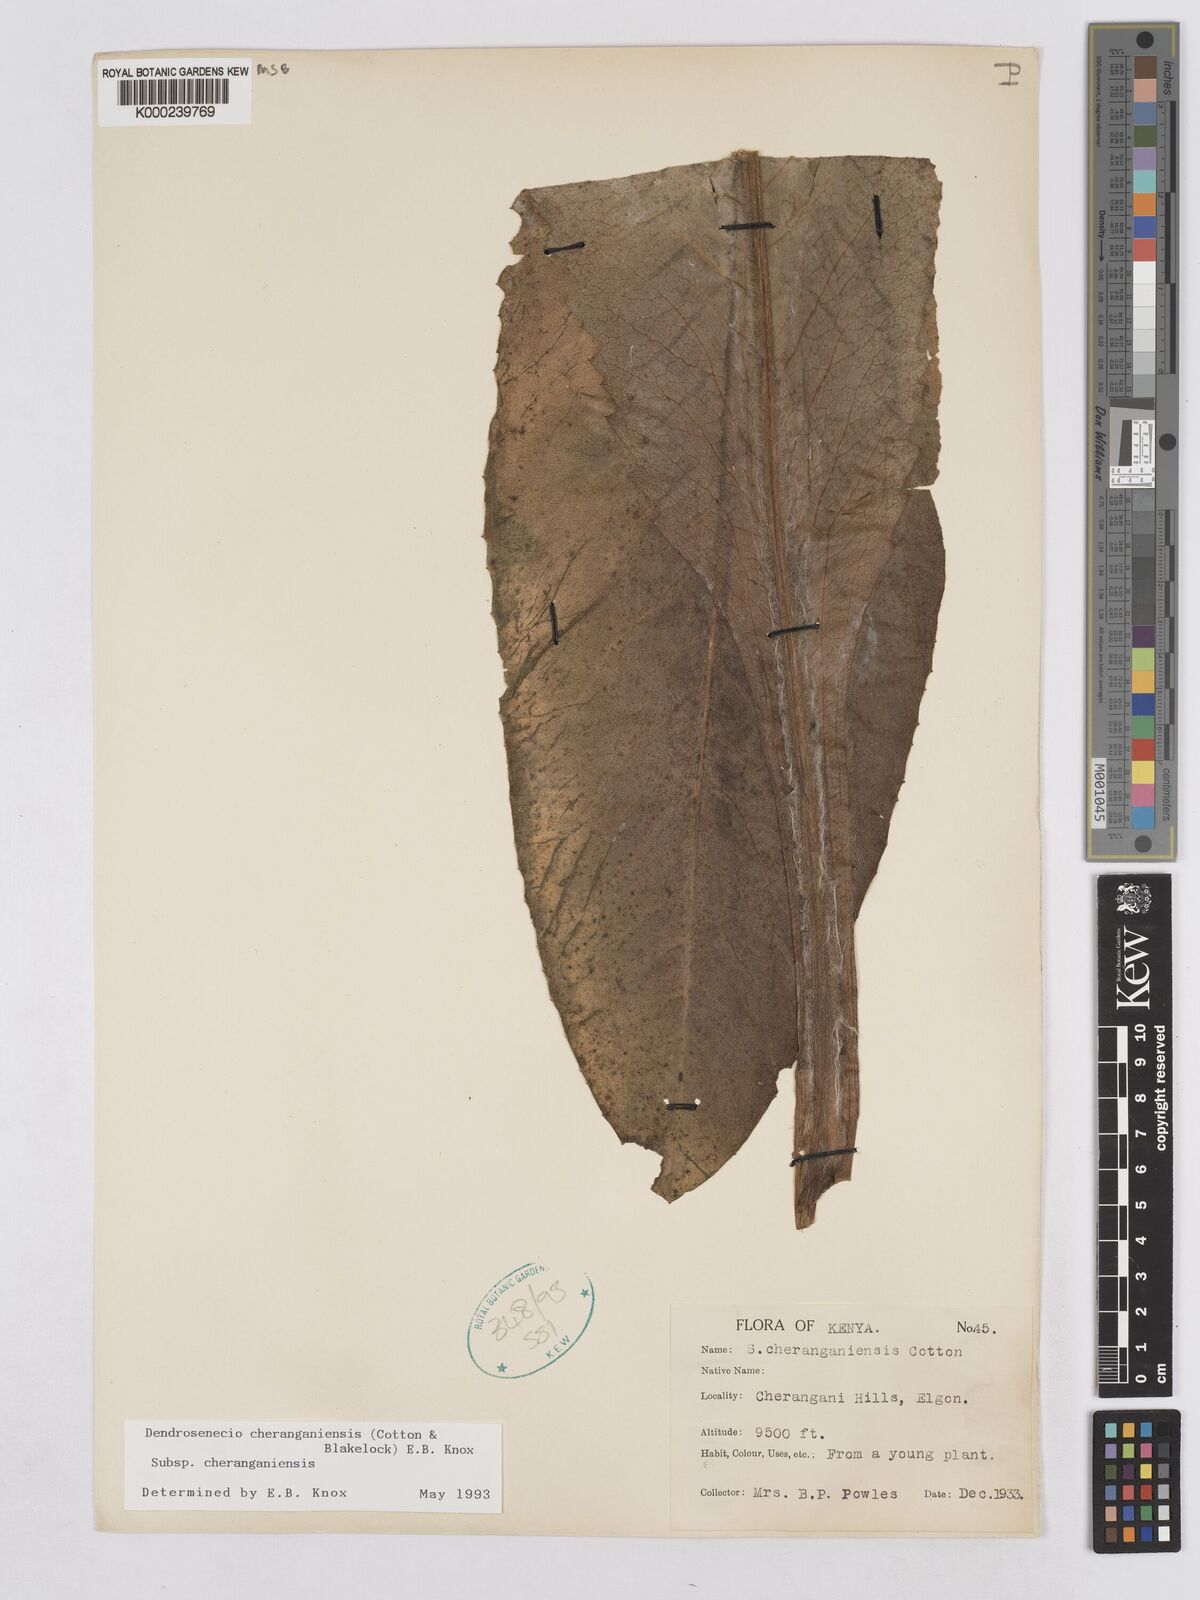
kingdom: Plantae
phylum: Tracheophyta
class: Magnoliopsida
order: Asterales
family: Asteraceae
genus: Dendrosenecio
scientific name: Dendrosenecio cheranganiensis
